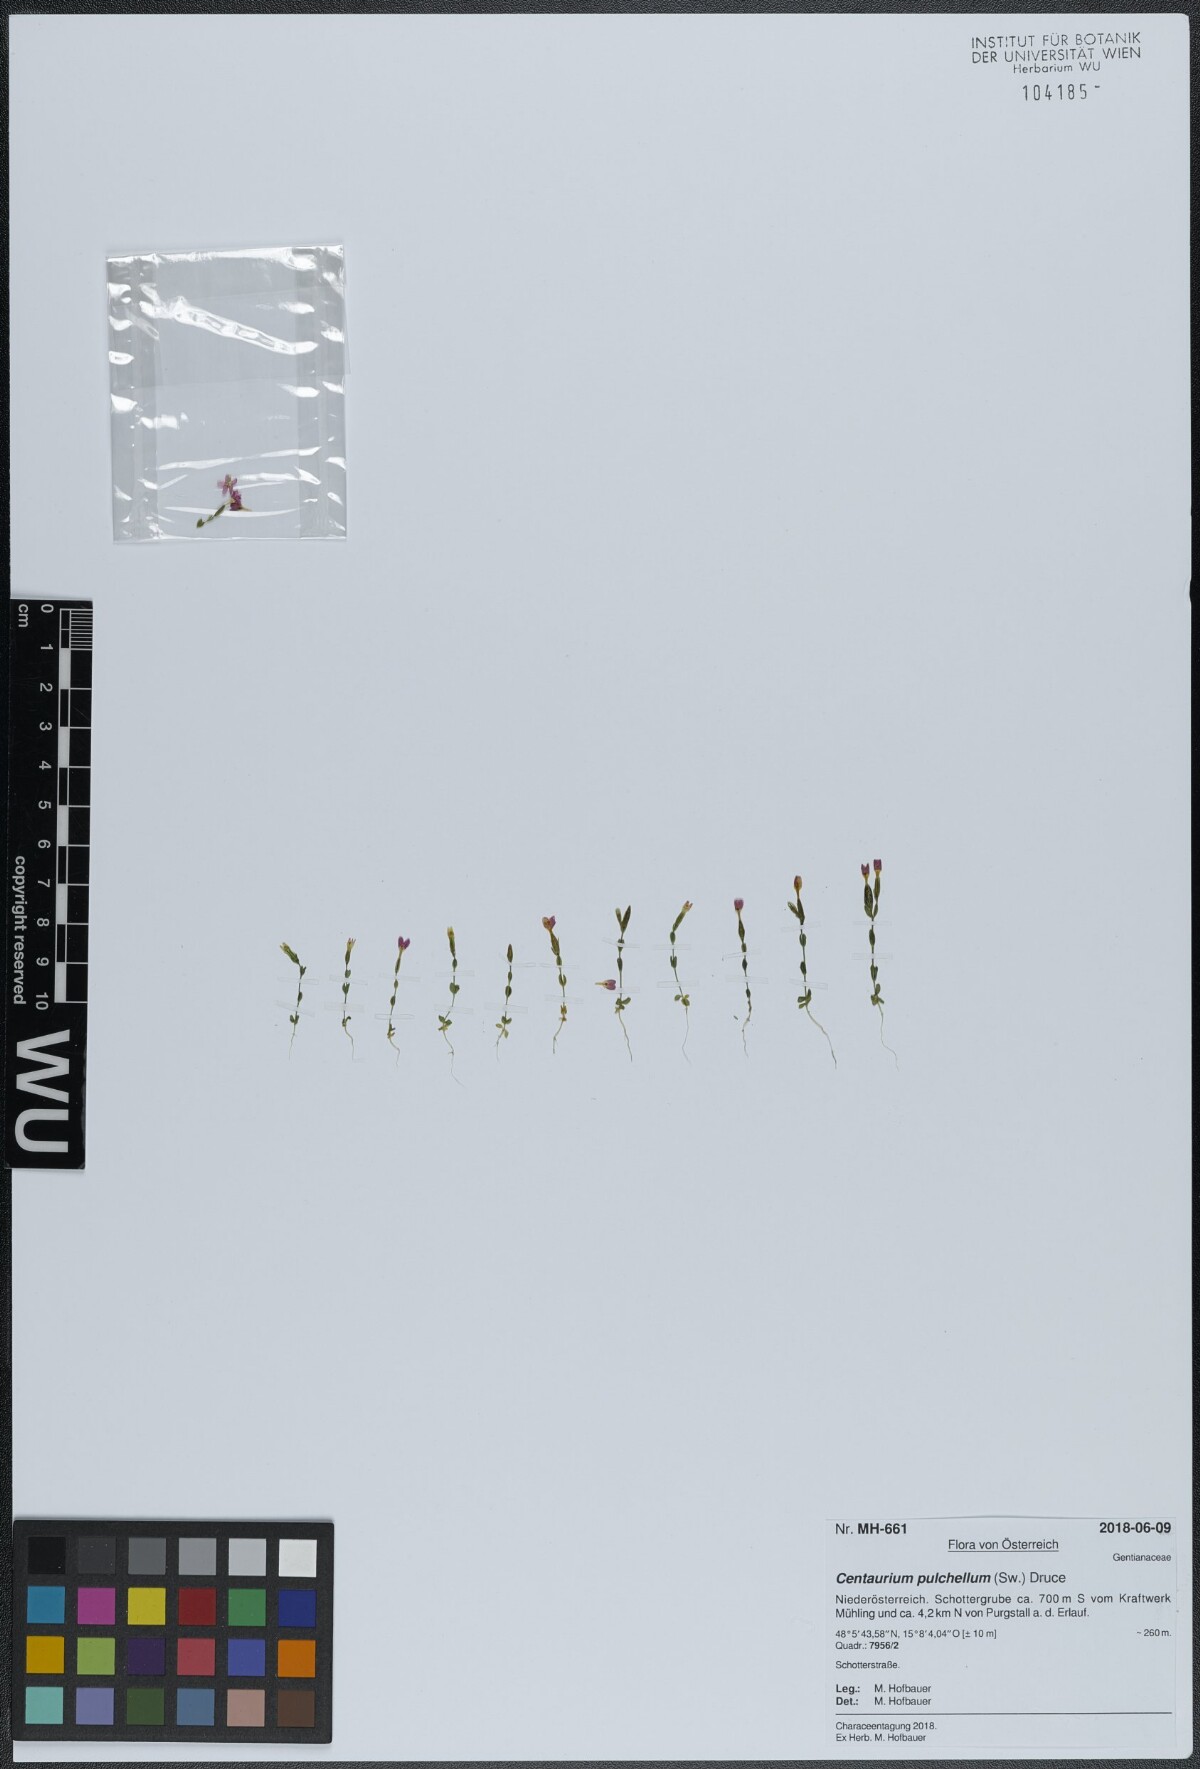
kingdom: Plantae
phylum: Tracheophyta
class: Magnoliopsida
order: Gentianales
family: Gentianaceae
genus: Centaurium
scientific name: Centaurium pulchellum
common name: Lesser centaury
